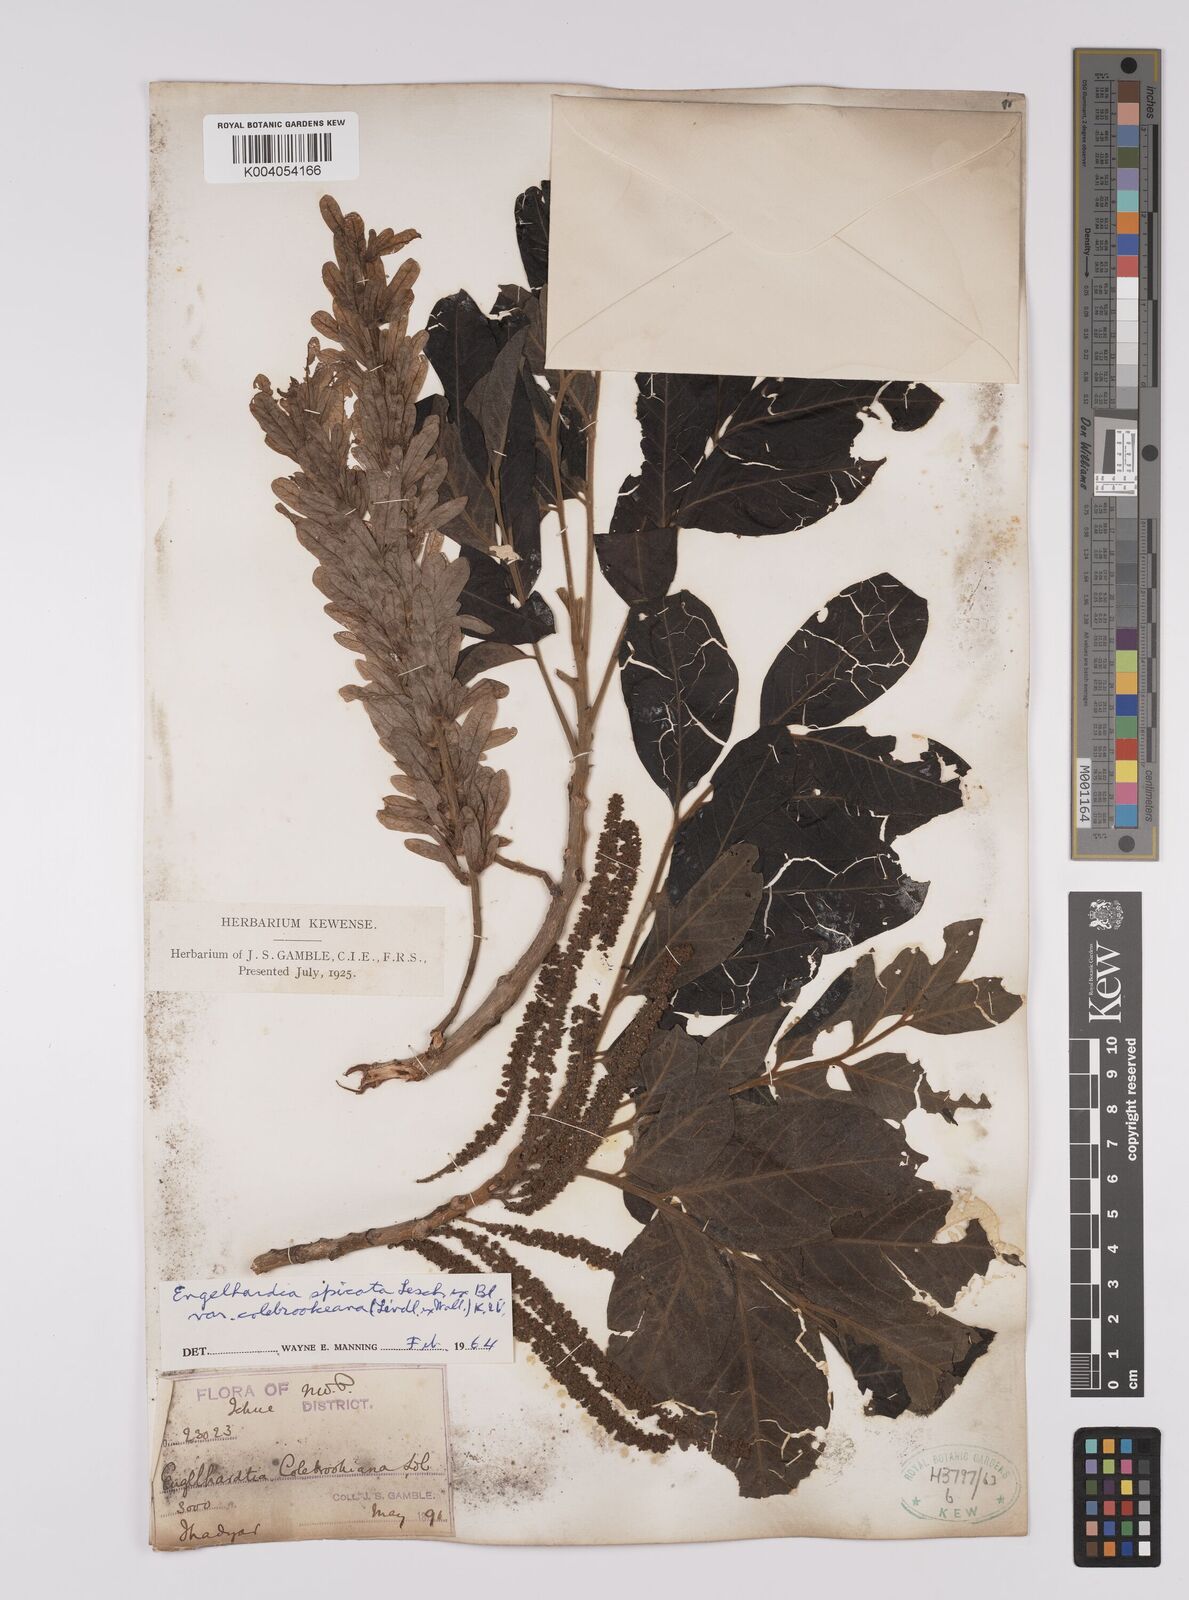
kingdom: Plantae
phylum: Tracheophyta
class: Magnoliopsida
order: Fagales
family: Juglandaceae
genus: Engelhardia
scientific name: Engelhardia spicata
